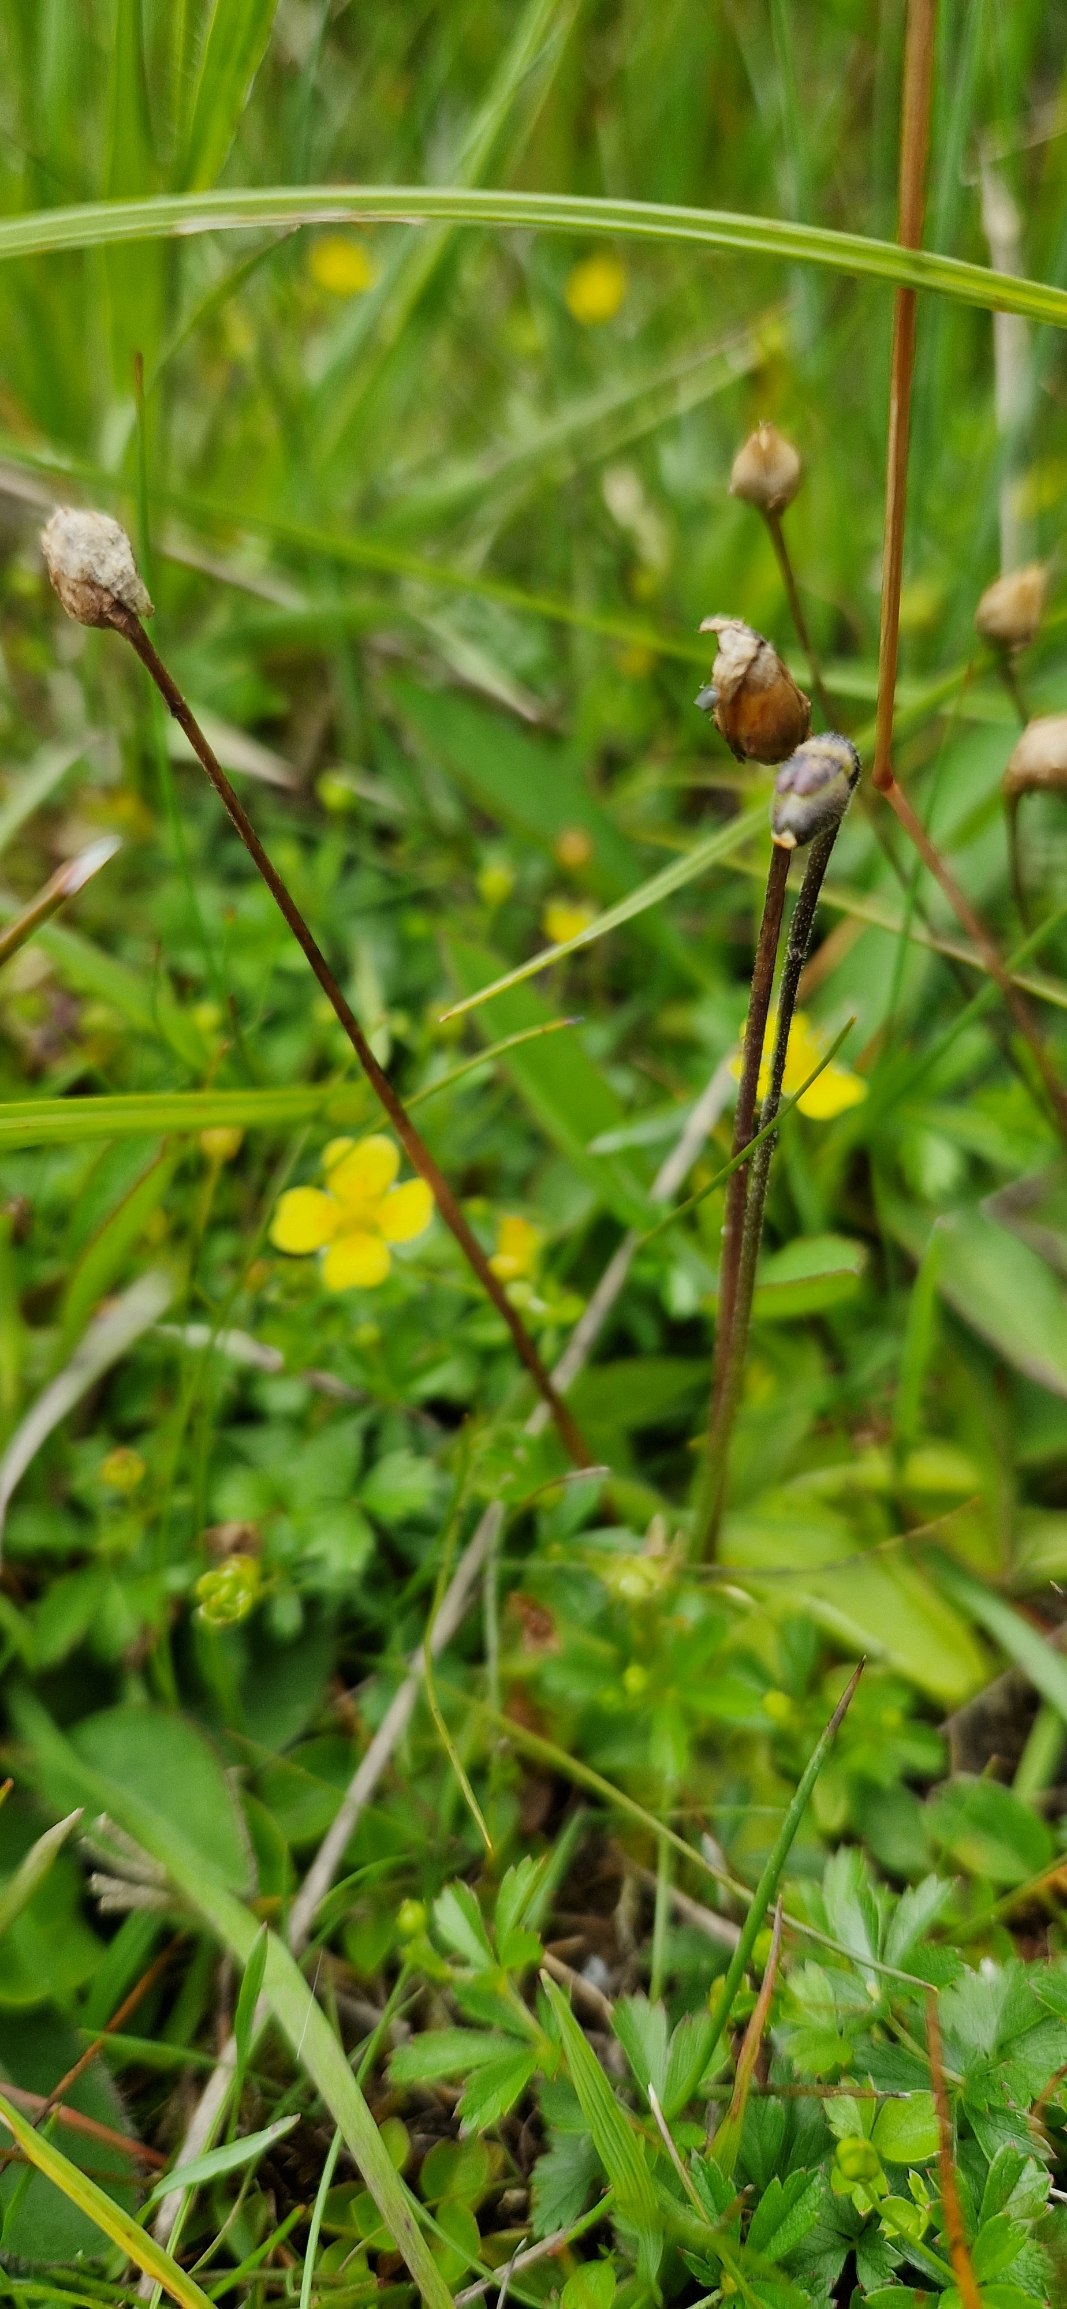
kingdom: Plantae
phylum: Tracheophyta
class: Magnoliopsida
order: Lamiales
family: Lentibulariaceae
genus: Pinguicula
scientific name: Pinguicula vulgaris
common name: Vibefedt
